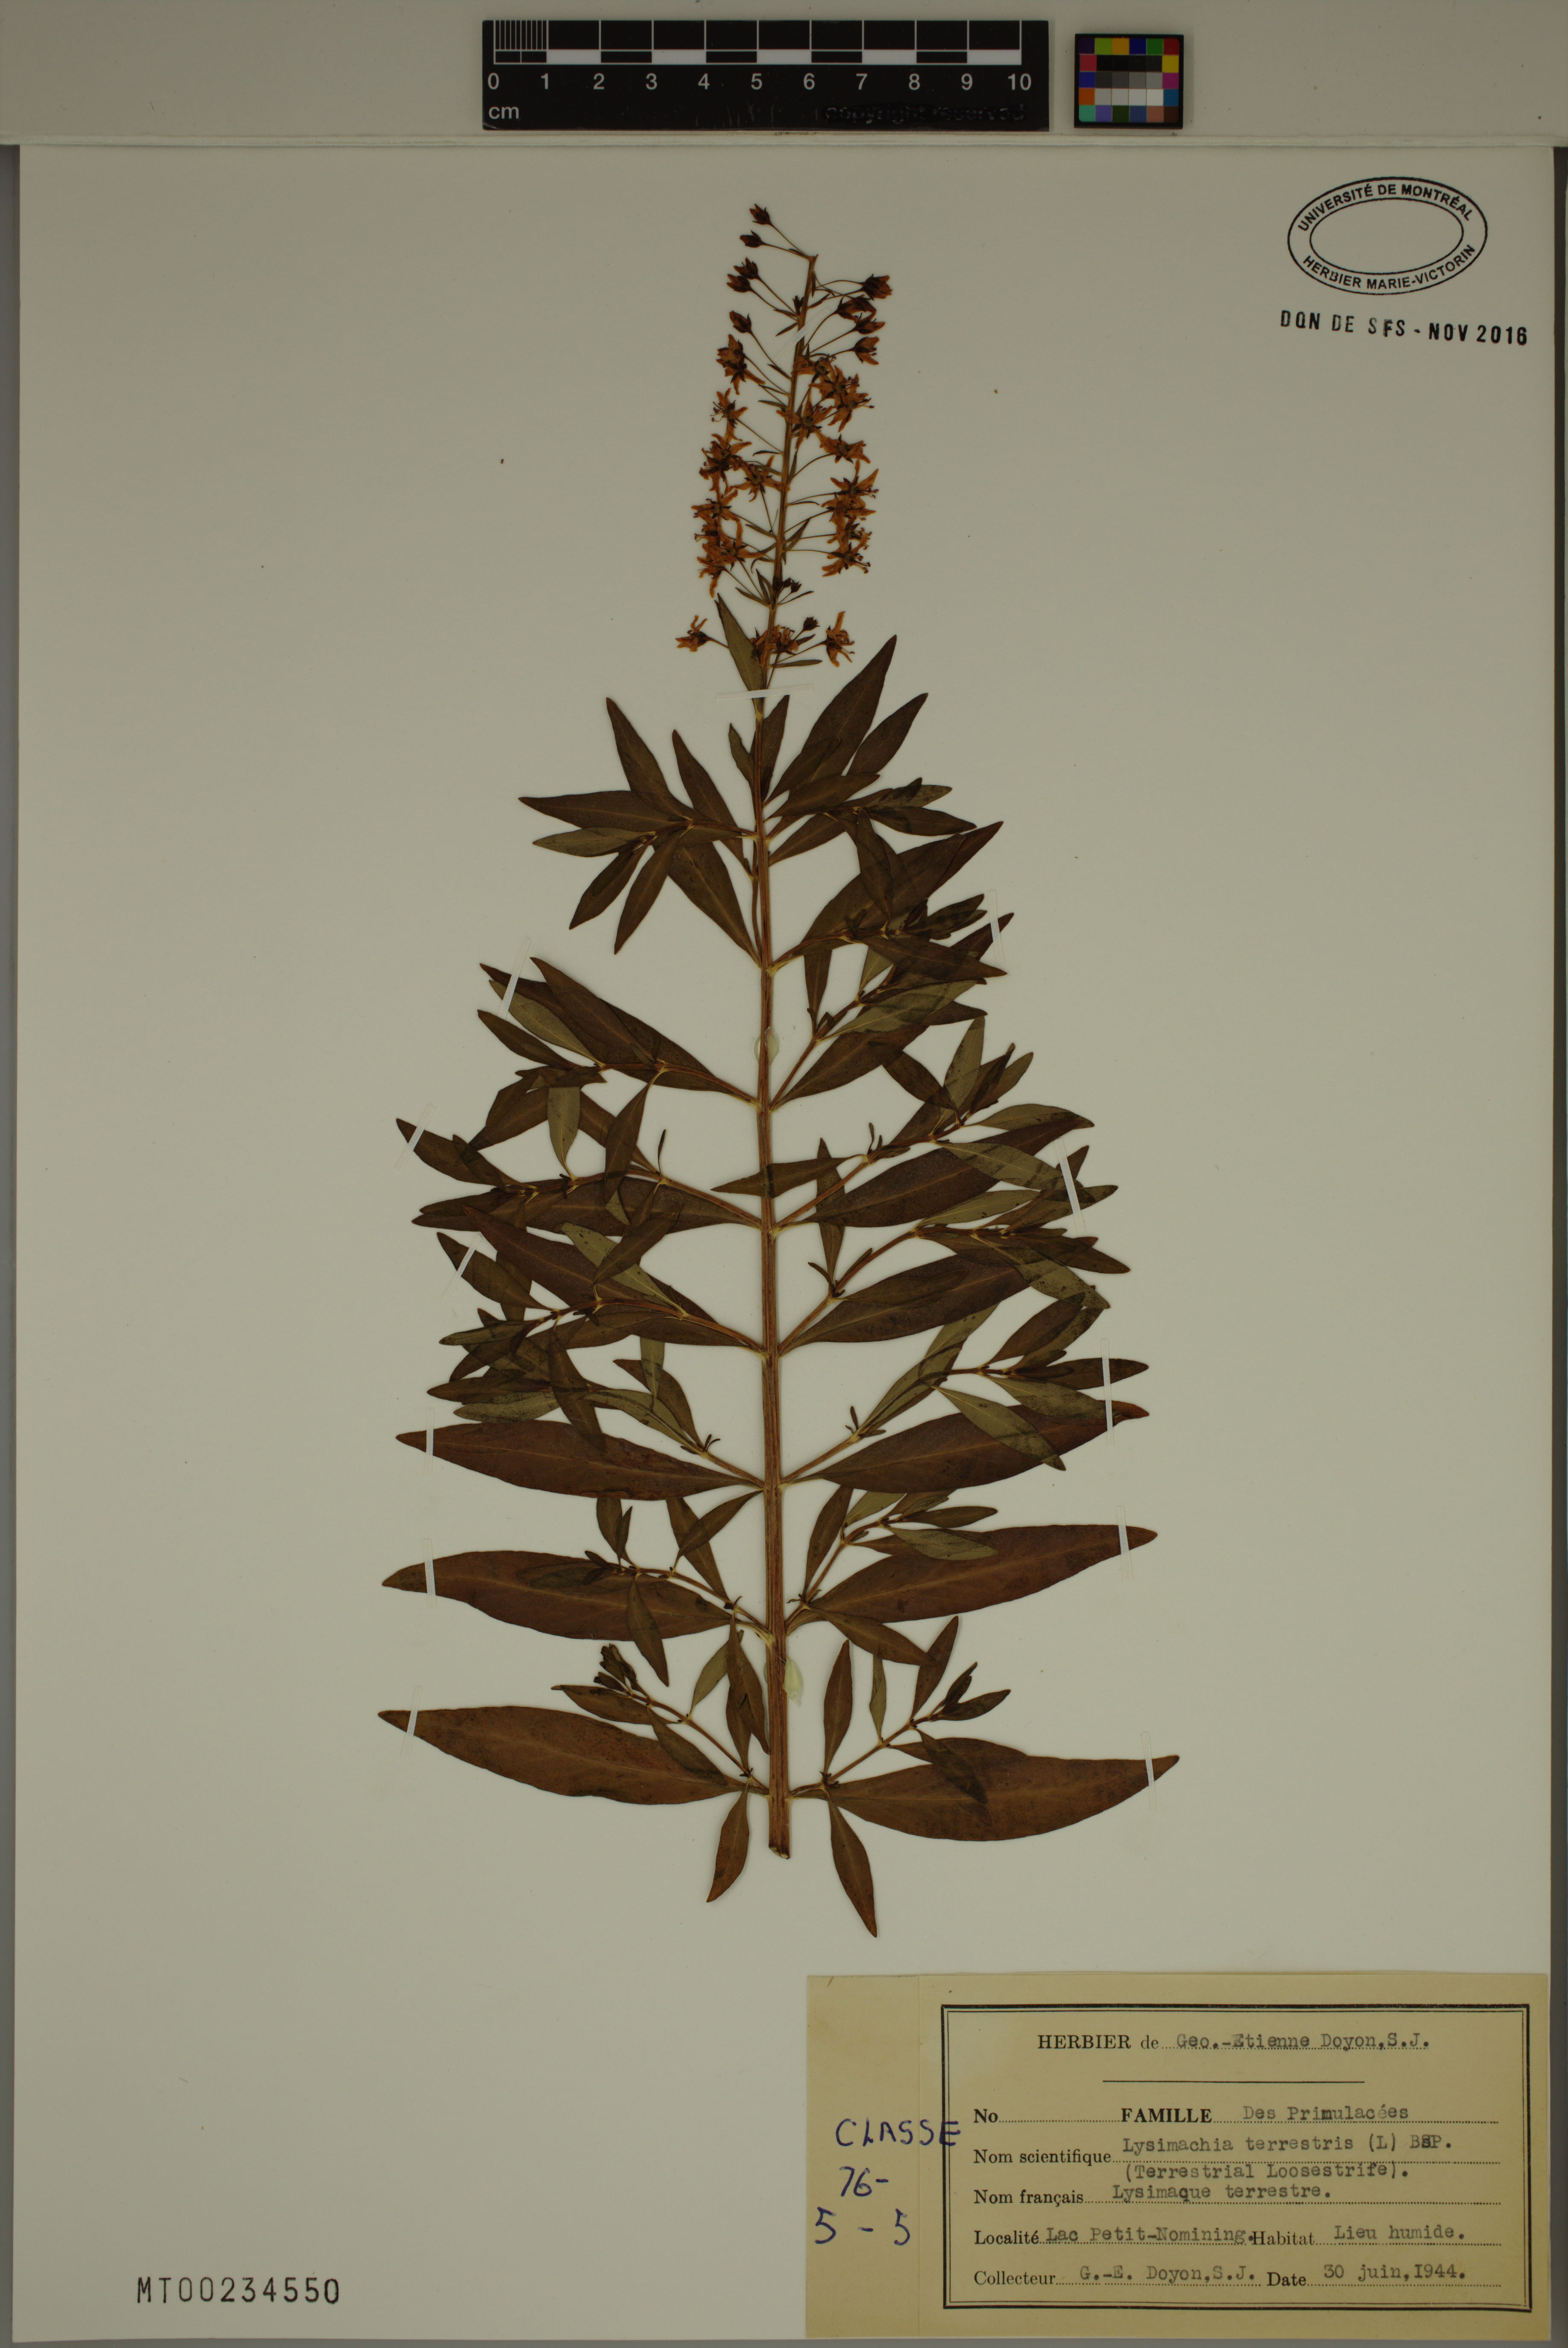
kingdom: Plantae
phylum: Tracheophyta
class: Magnoliopsida
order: Ericales
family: Primulaceae
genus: Lysimachia
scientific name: Lysimachia terrestris
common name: Lake loosestrife
